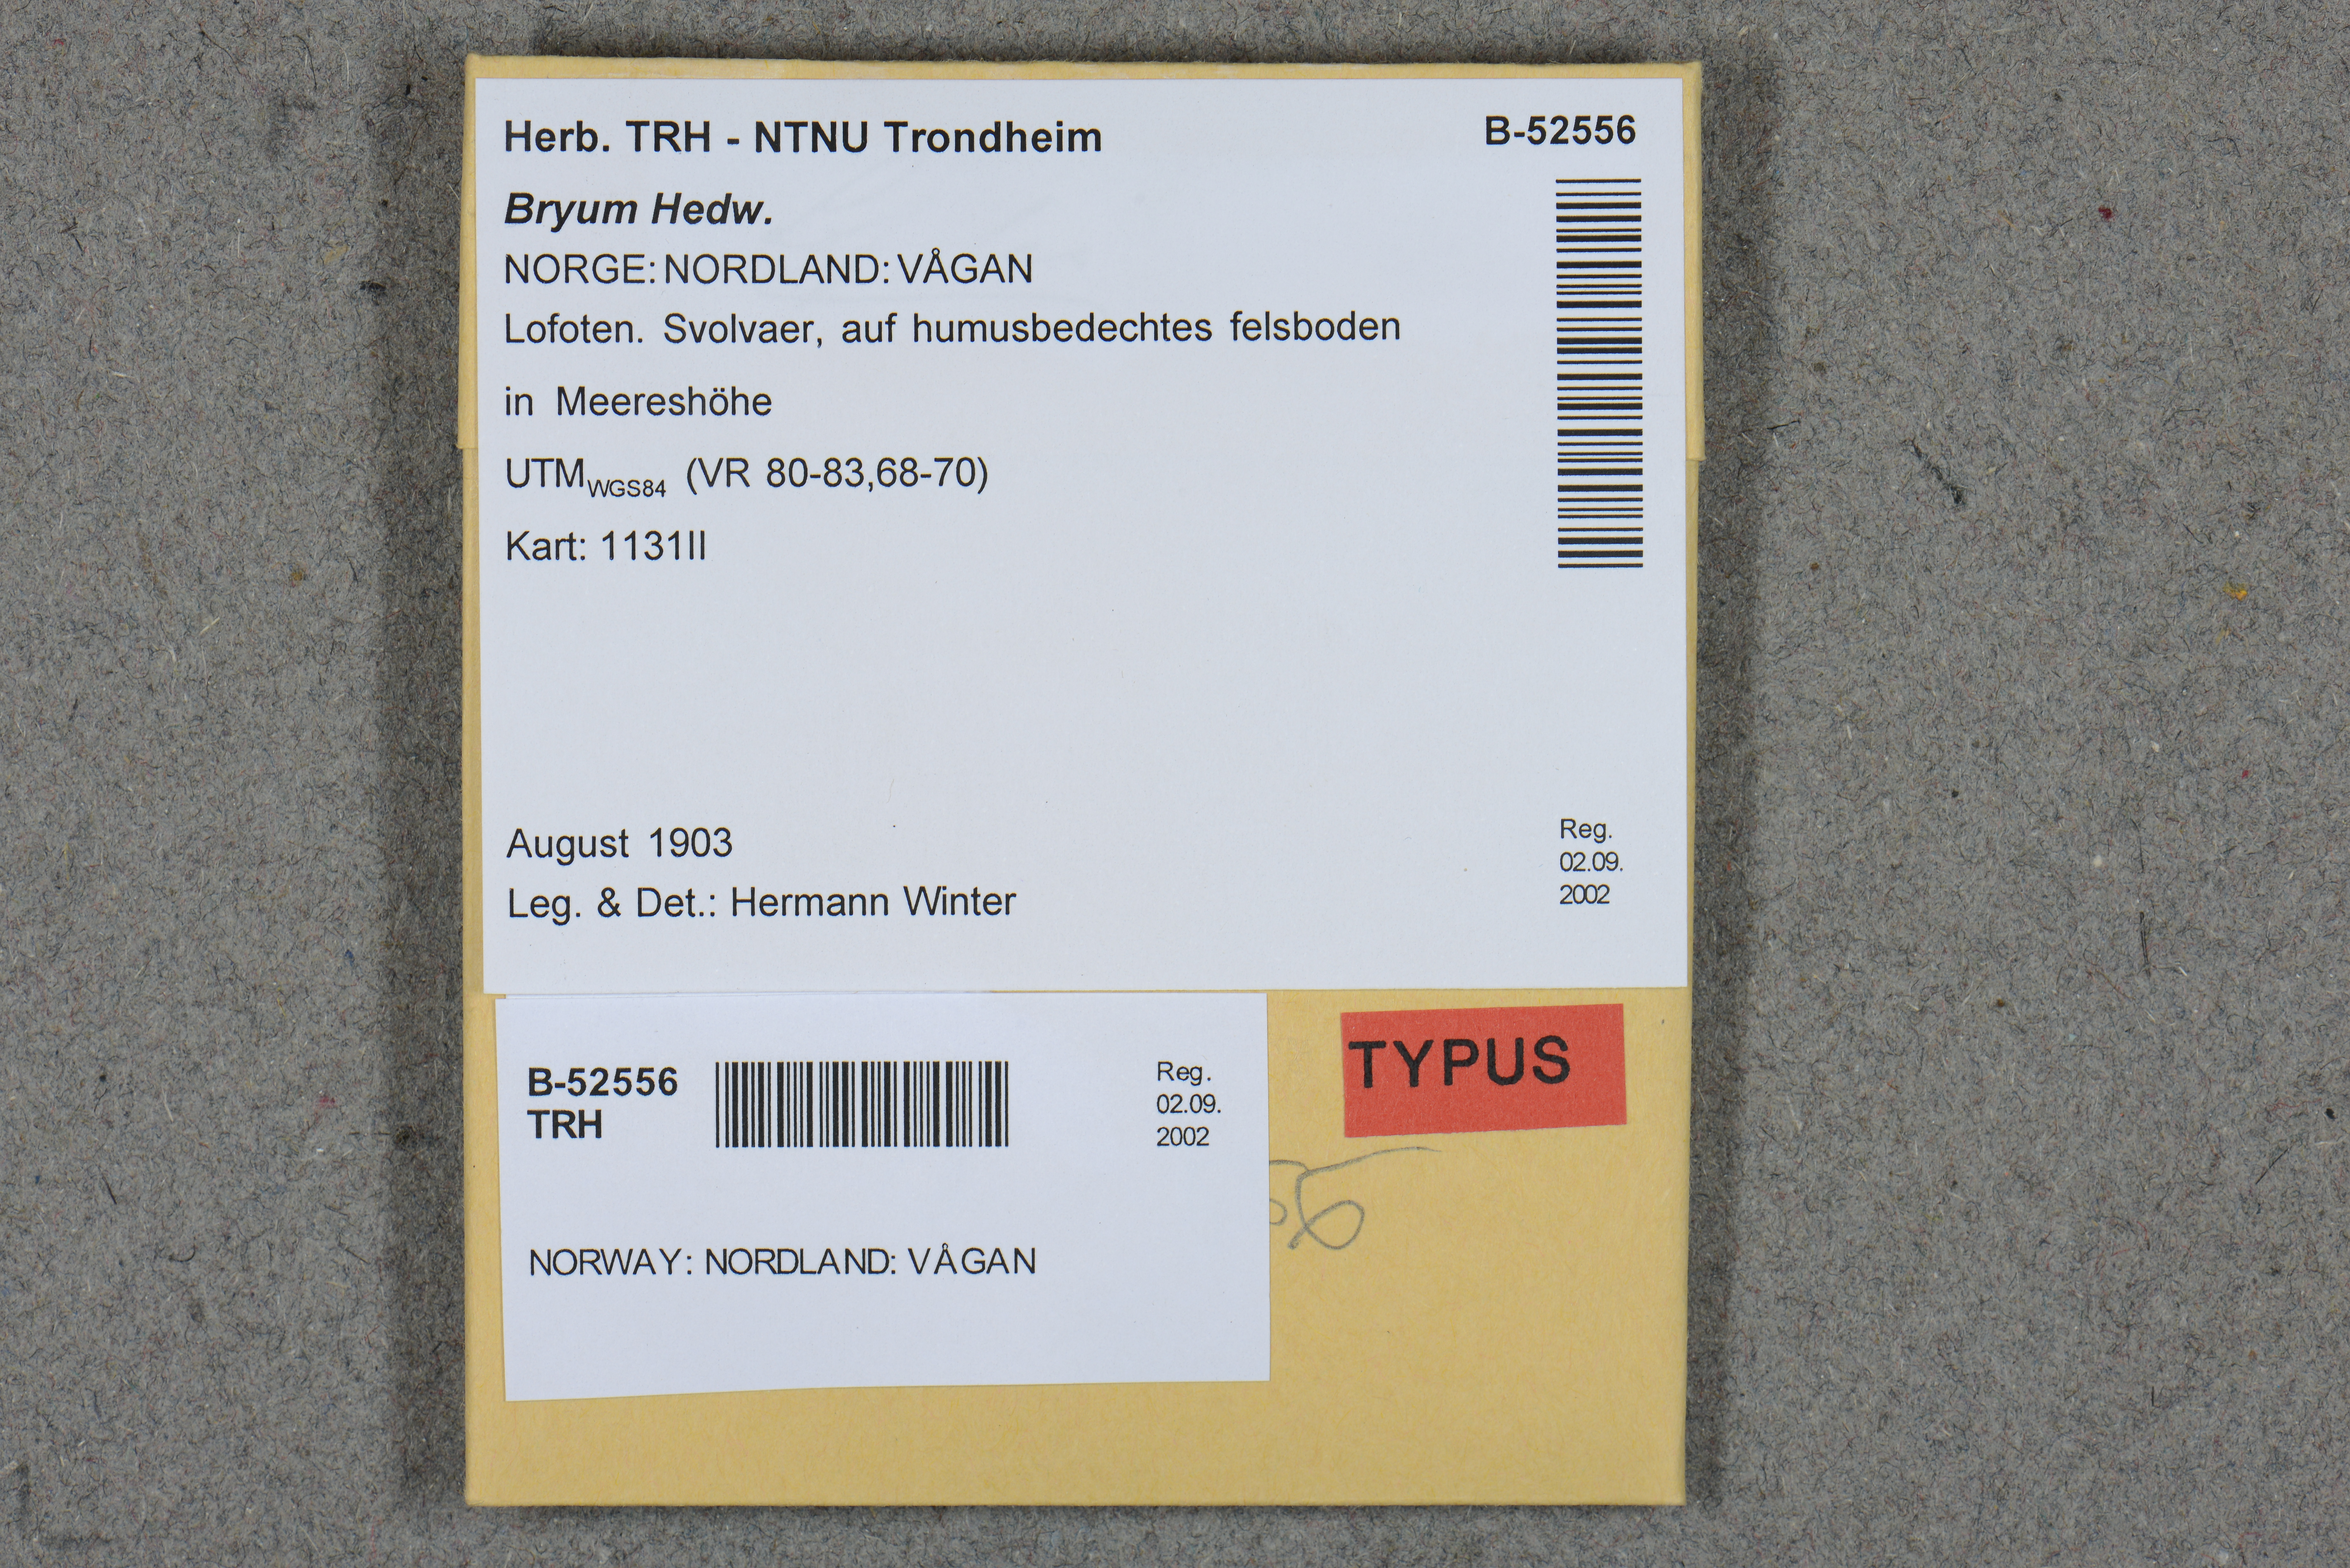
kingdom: Plantae
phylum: Bryophyta
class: Bryopsida
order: Bryales
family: Bryaceae
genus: Ptychostomum
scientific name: Ptychostomum inclinatum
